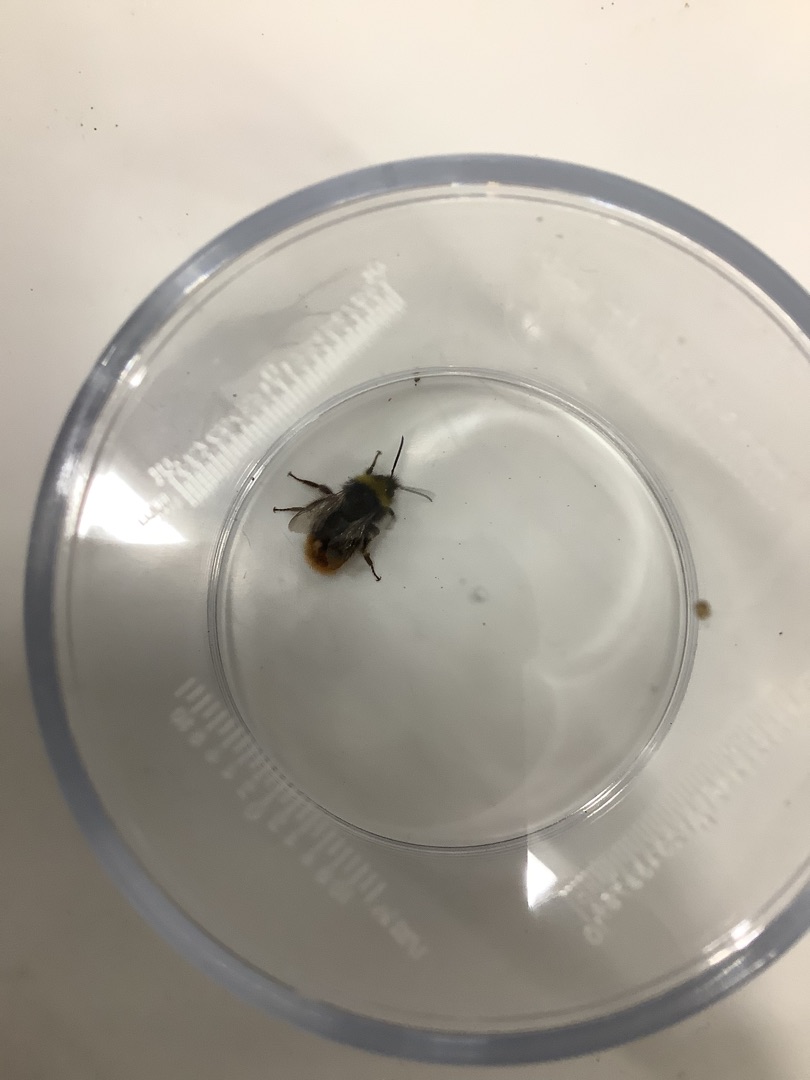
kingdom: Animalia
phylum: Arthropoda
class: Insecta
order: Hymenoptera
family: Apidae
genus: Bombus
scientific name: Bombus pratorum
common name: Lille skovhumle
